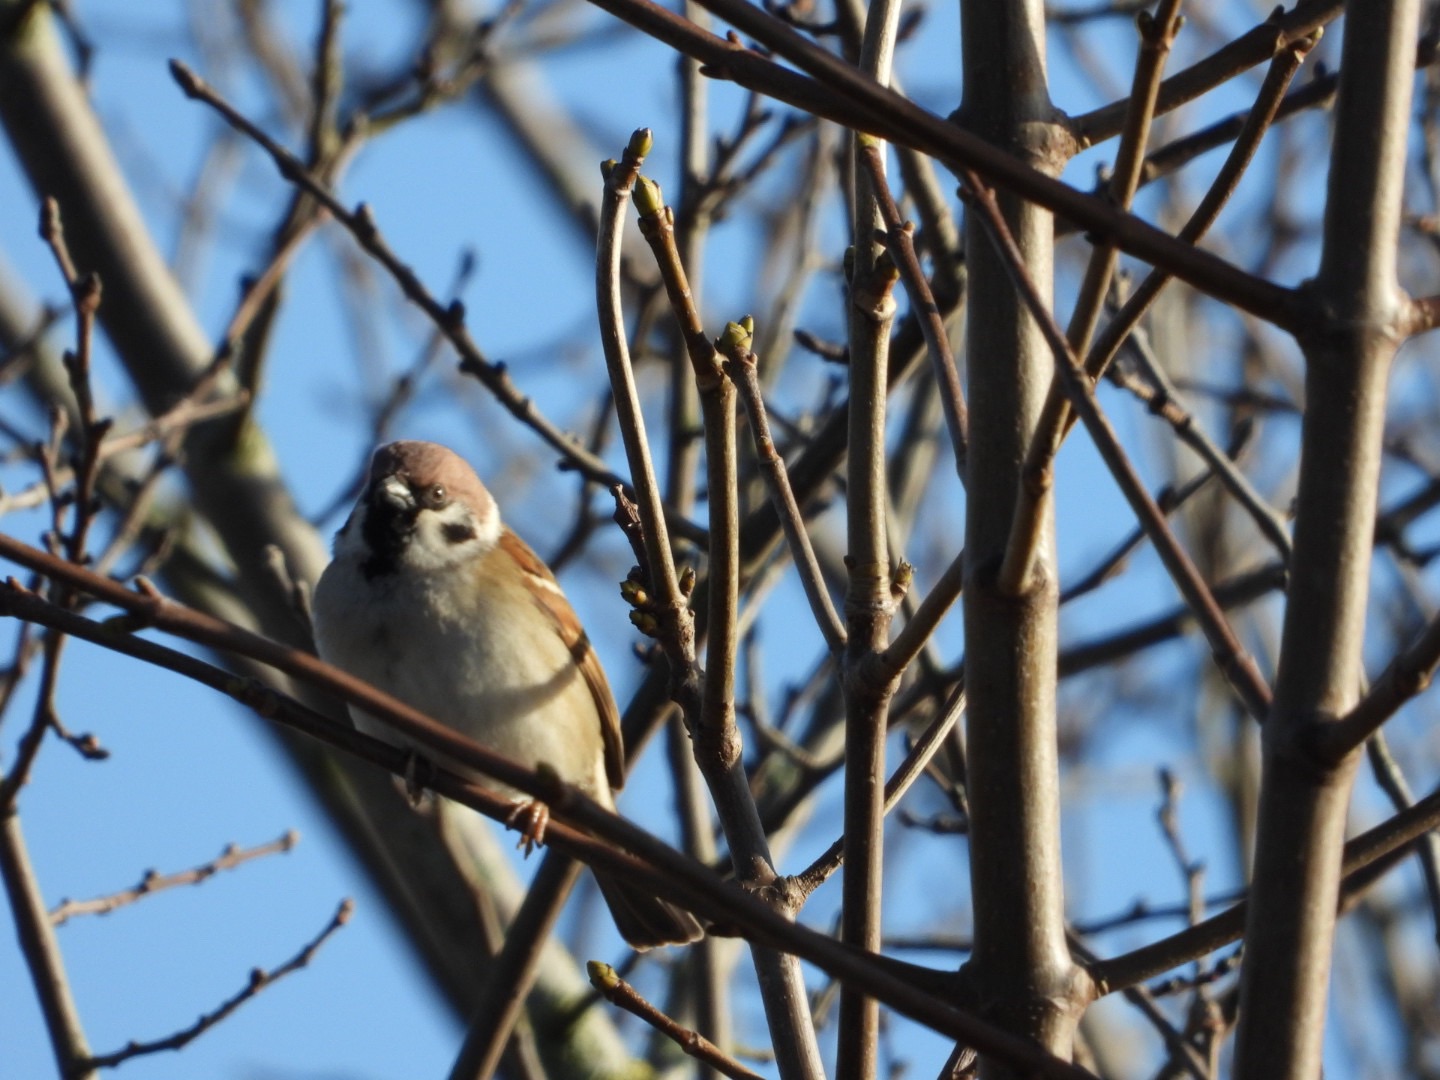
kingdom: Animalia
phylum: Chordata
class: Aves
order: Passeriformes
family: Passeridae
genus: Passer
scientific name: Passer montanus
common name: Skovspurv
